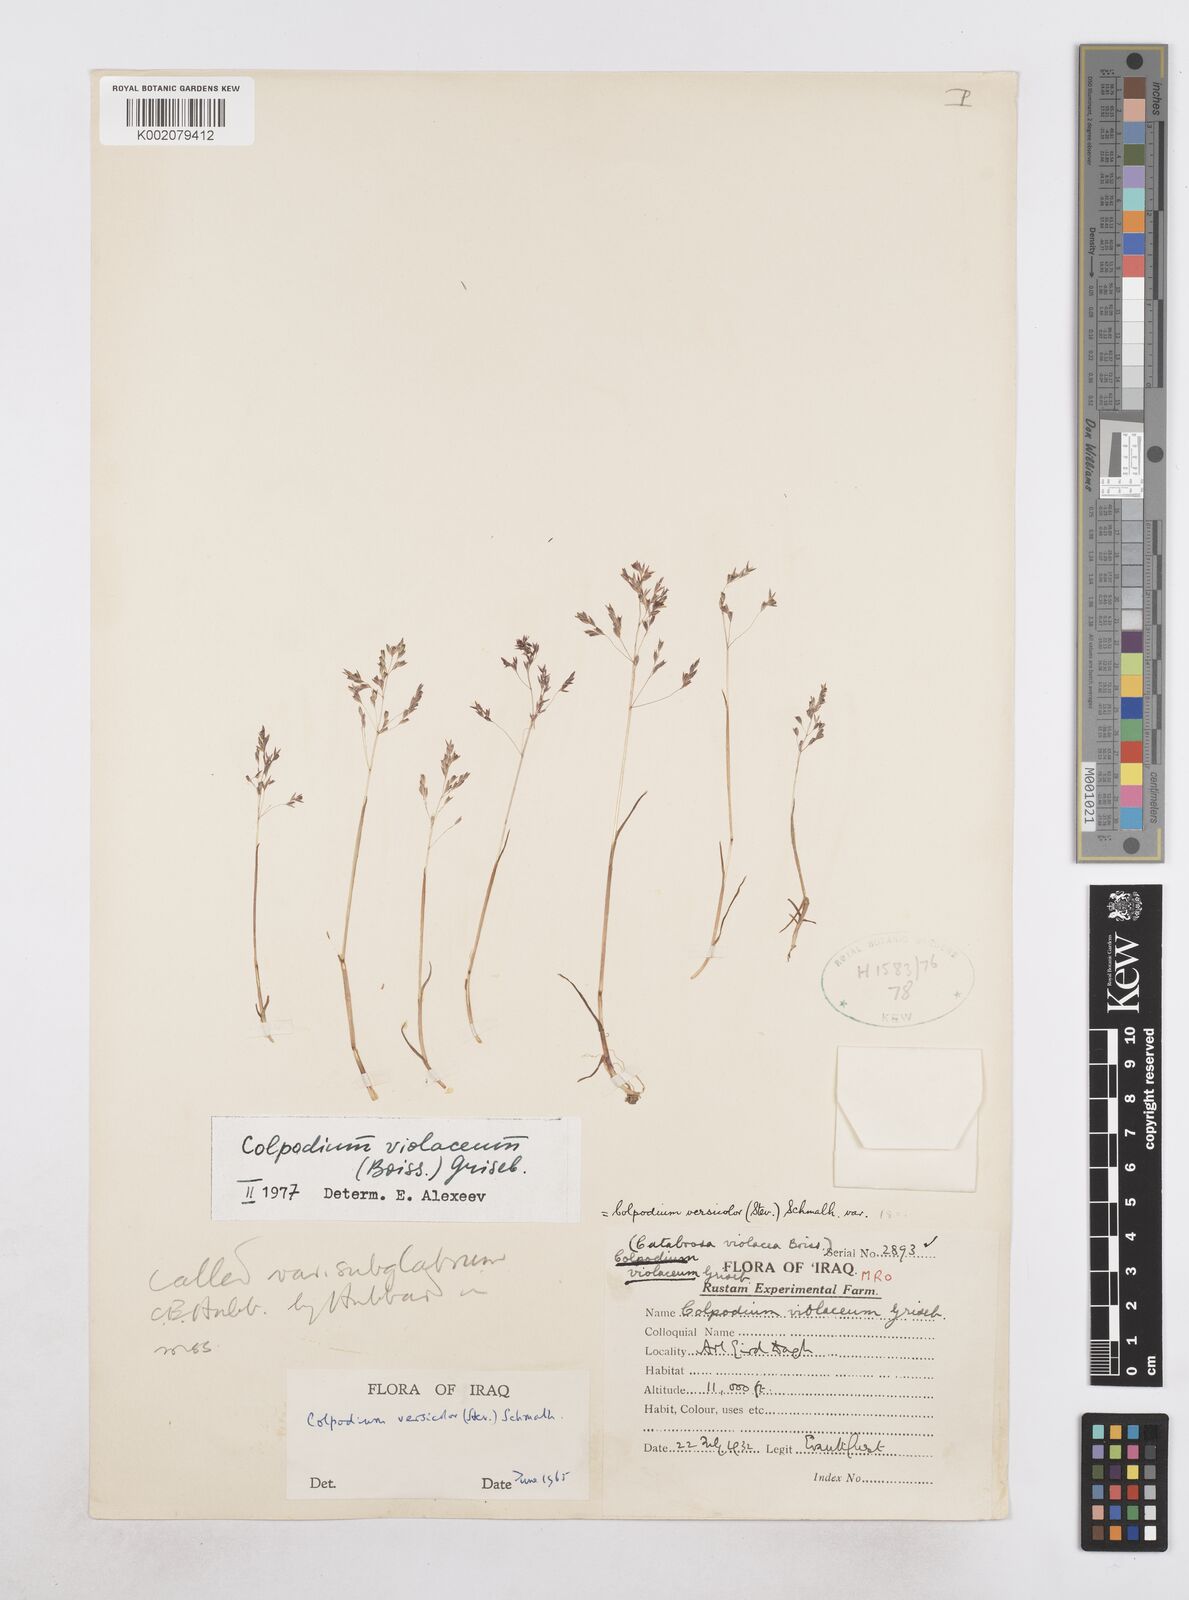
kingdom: Plantae
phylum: Tracheophyta
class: Liliopsida
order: Poales
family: Poaceae
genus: Catabrosella
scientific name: Catabrosella violacea
